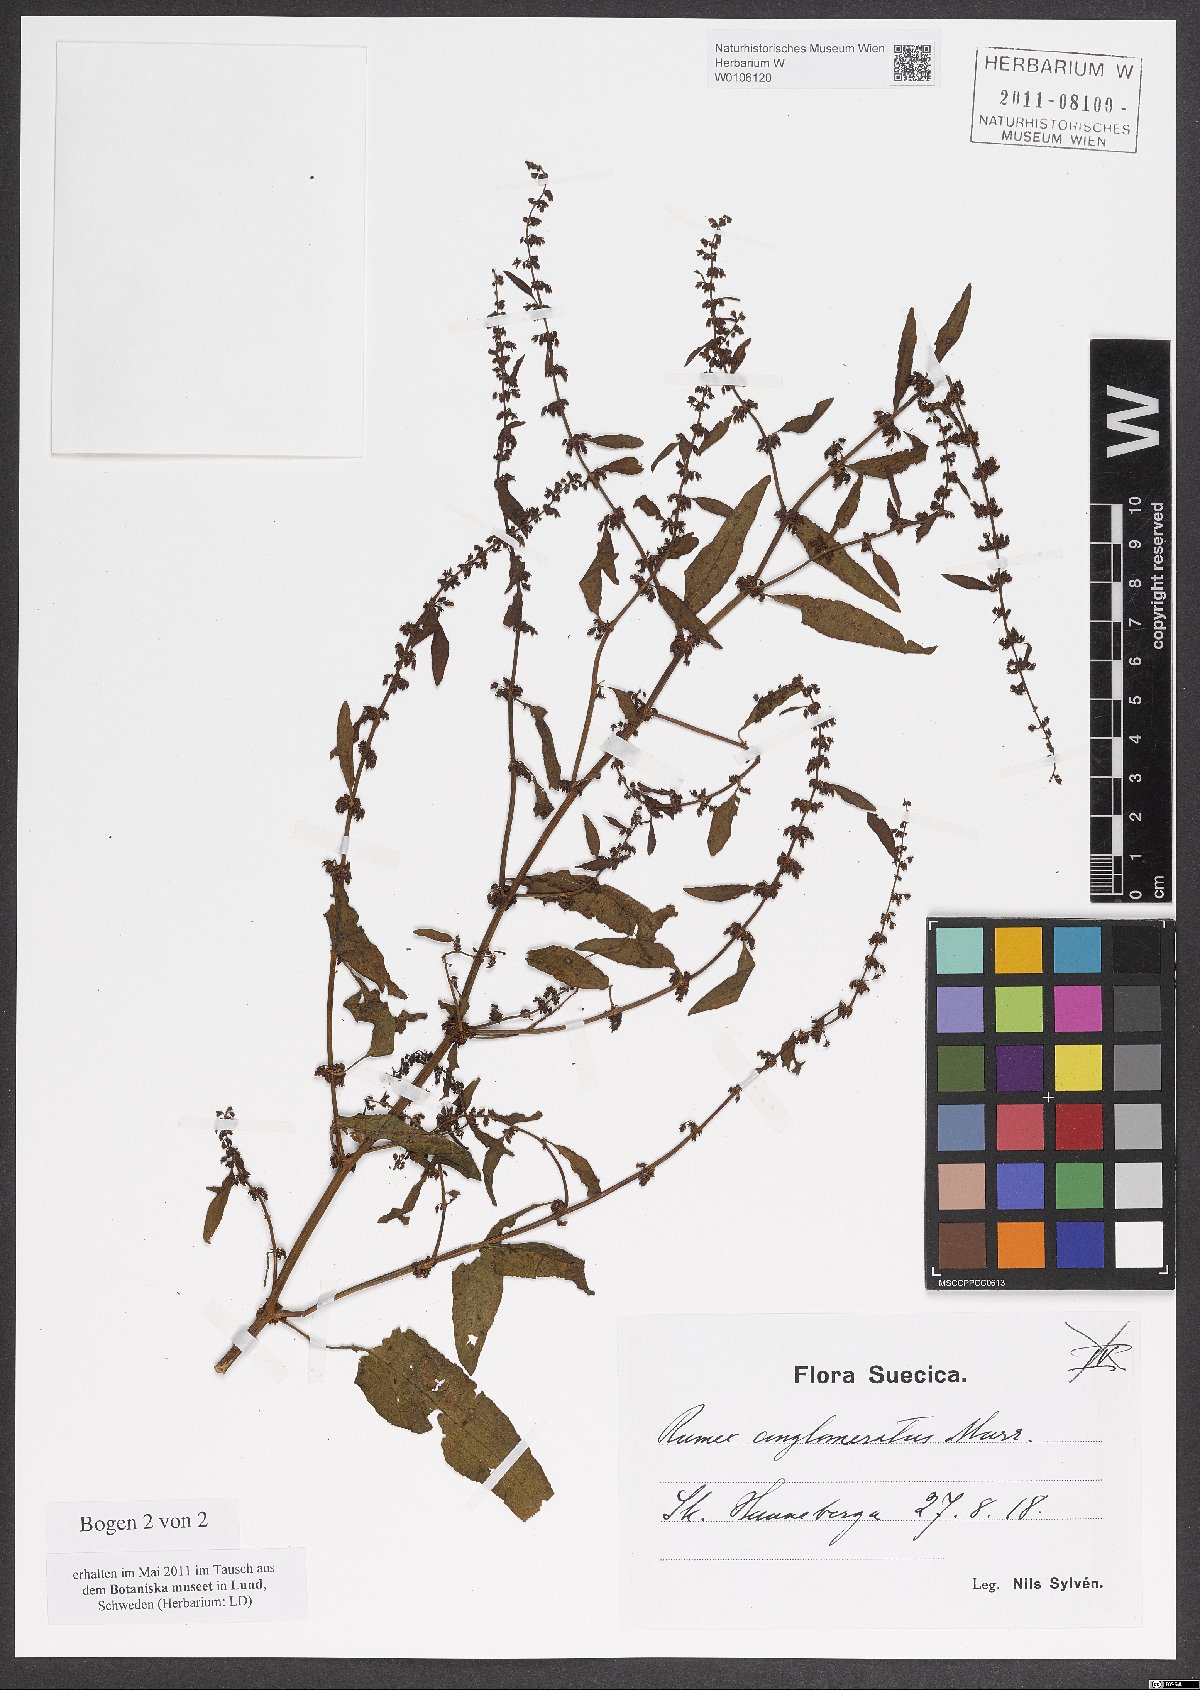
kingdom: Plantae
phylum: Tracheophyta
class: Magnoliopsida
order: Caryophyllales
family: Polygonaceae
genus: Rumex
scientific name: Rumex conglomeratus
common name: Clustered dock
